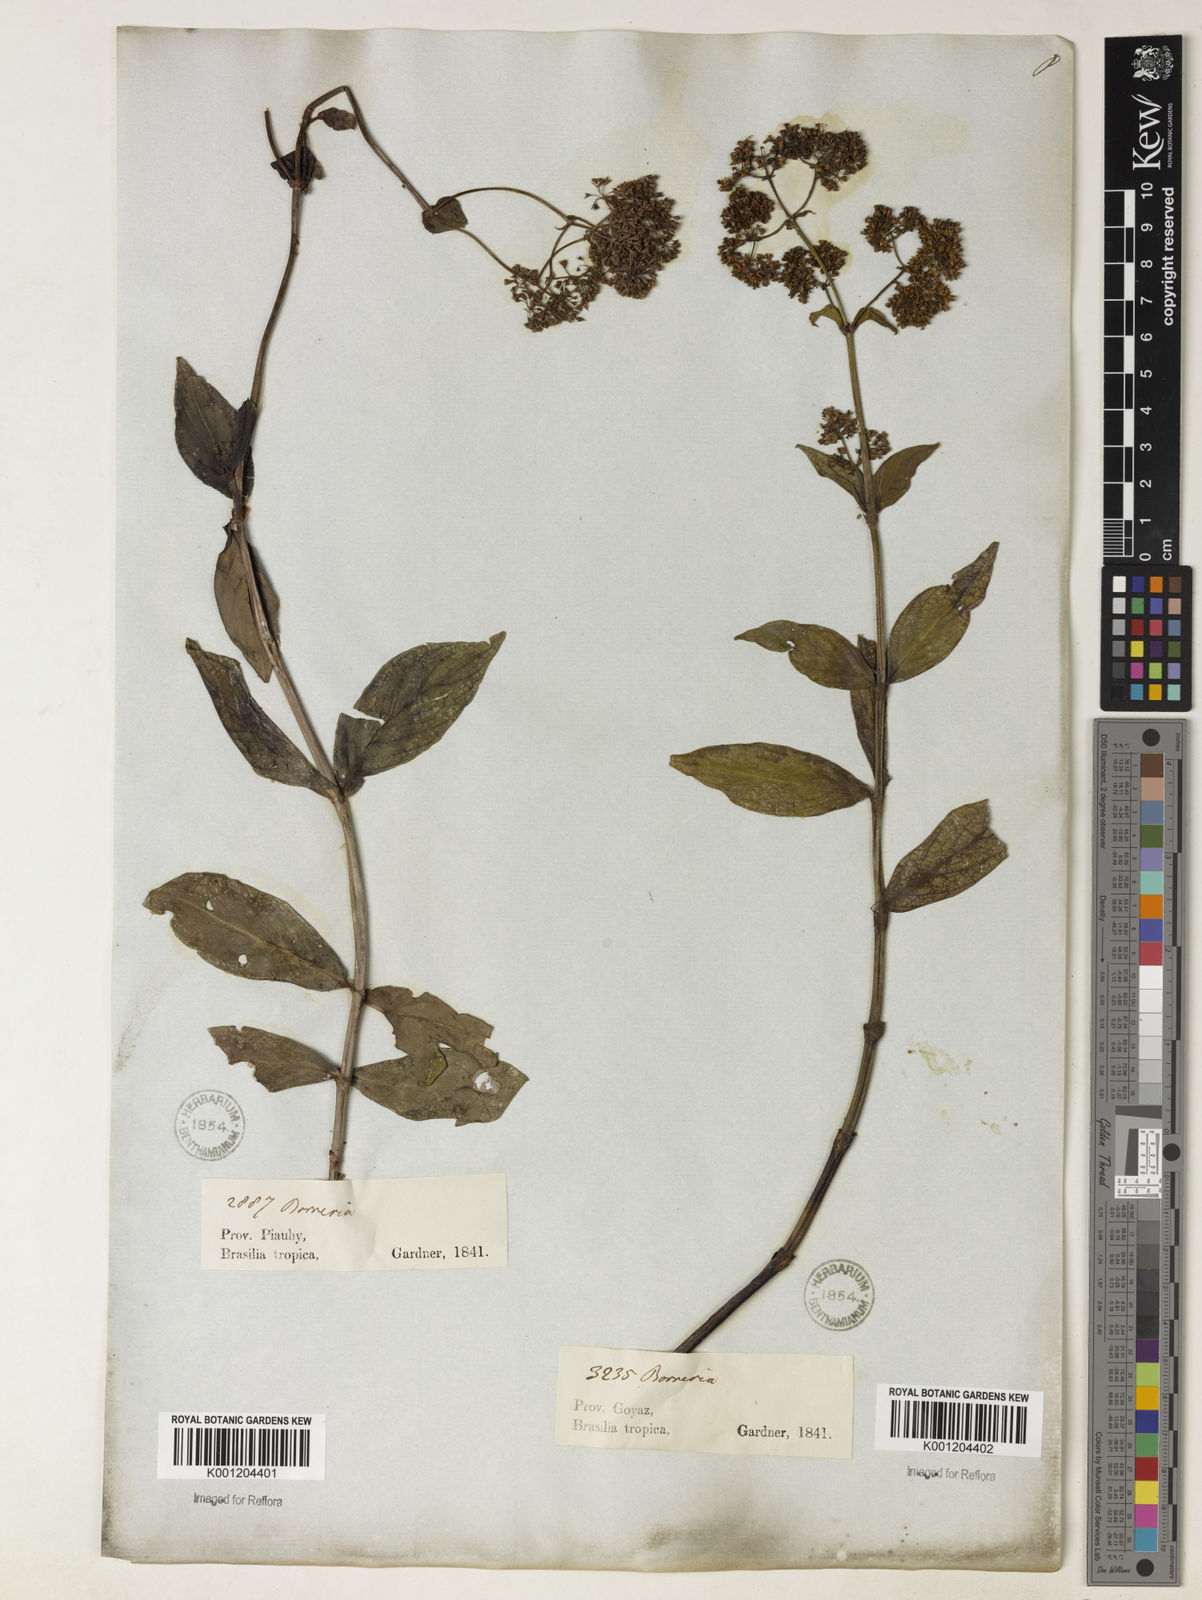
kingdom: Plantae
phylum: Tracheophyta
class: Magnoliopsida
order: Gentianales
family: Rubiaceae
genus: Emmeorhiza
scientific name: Emmeorhiza
